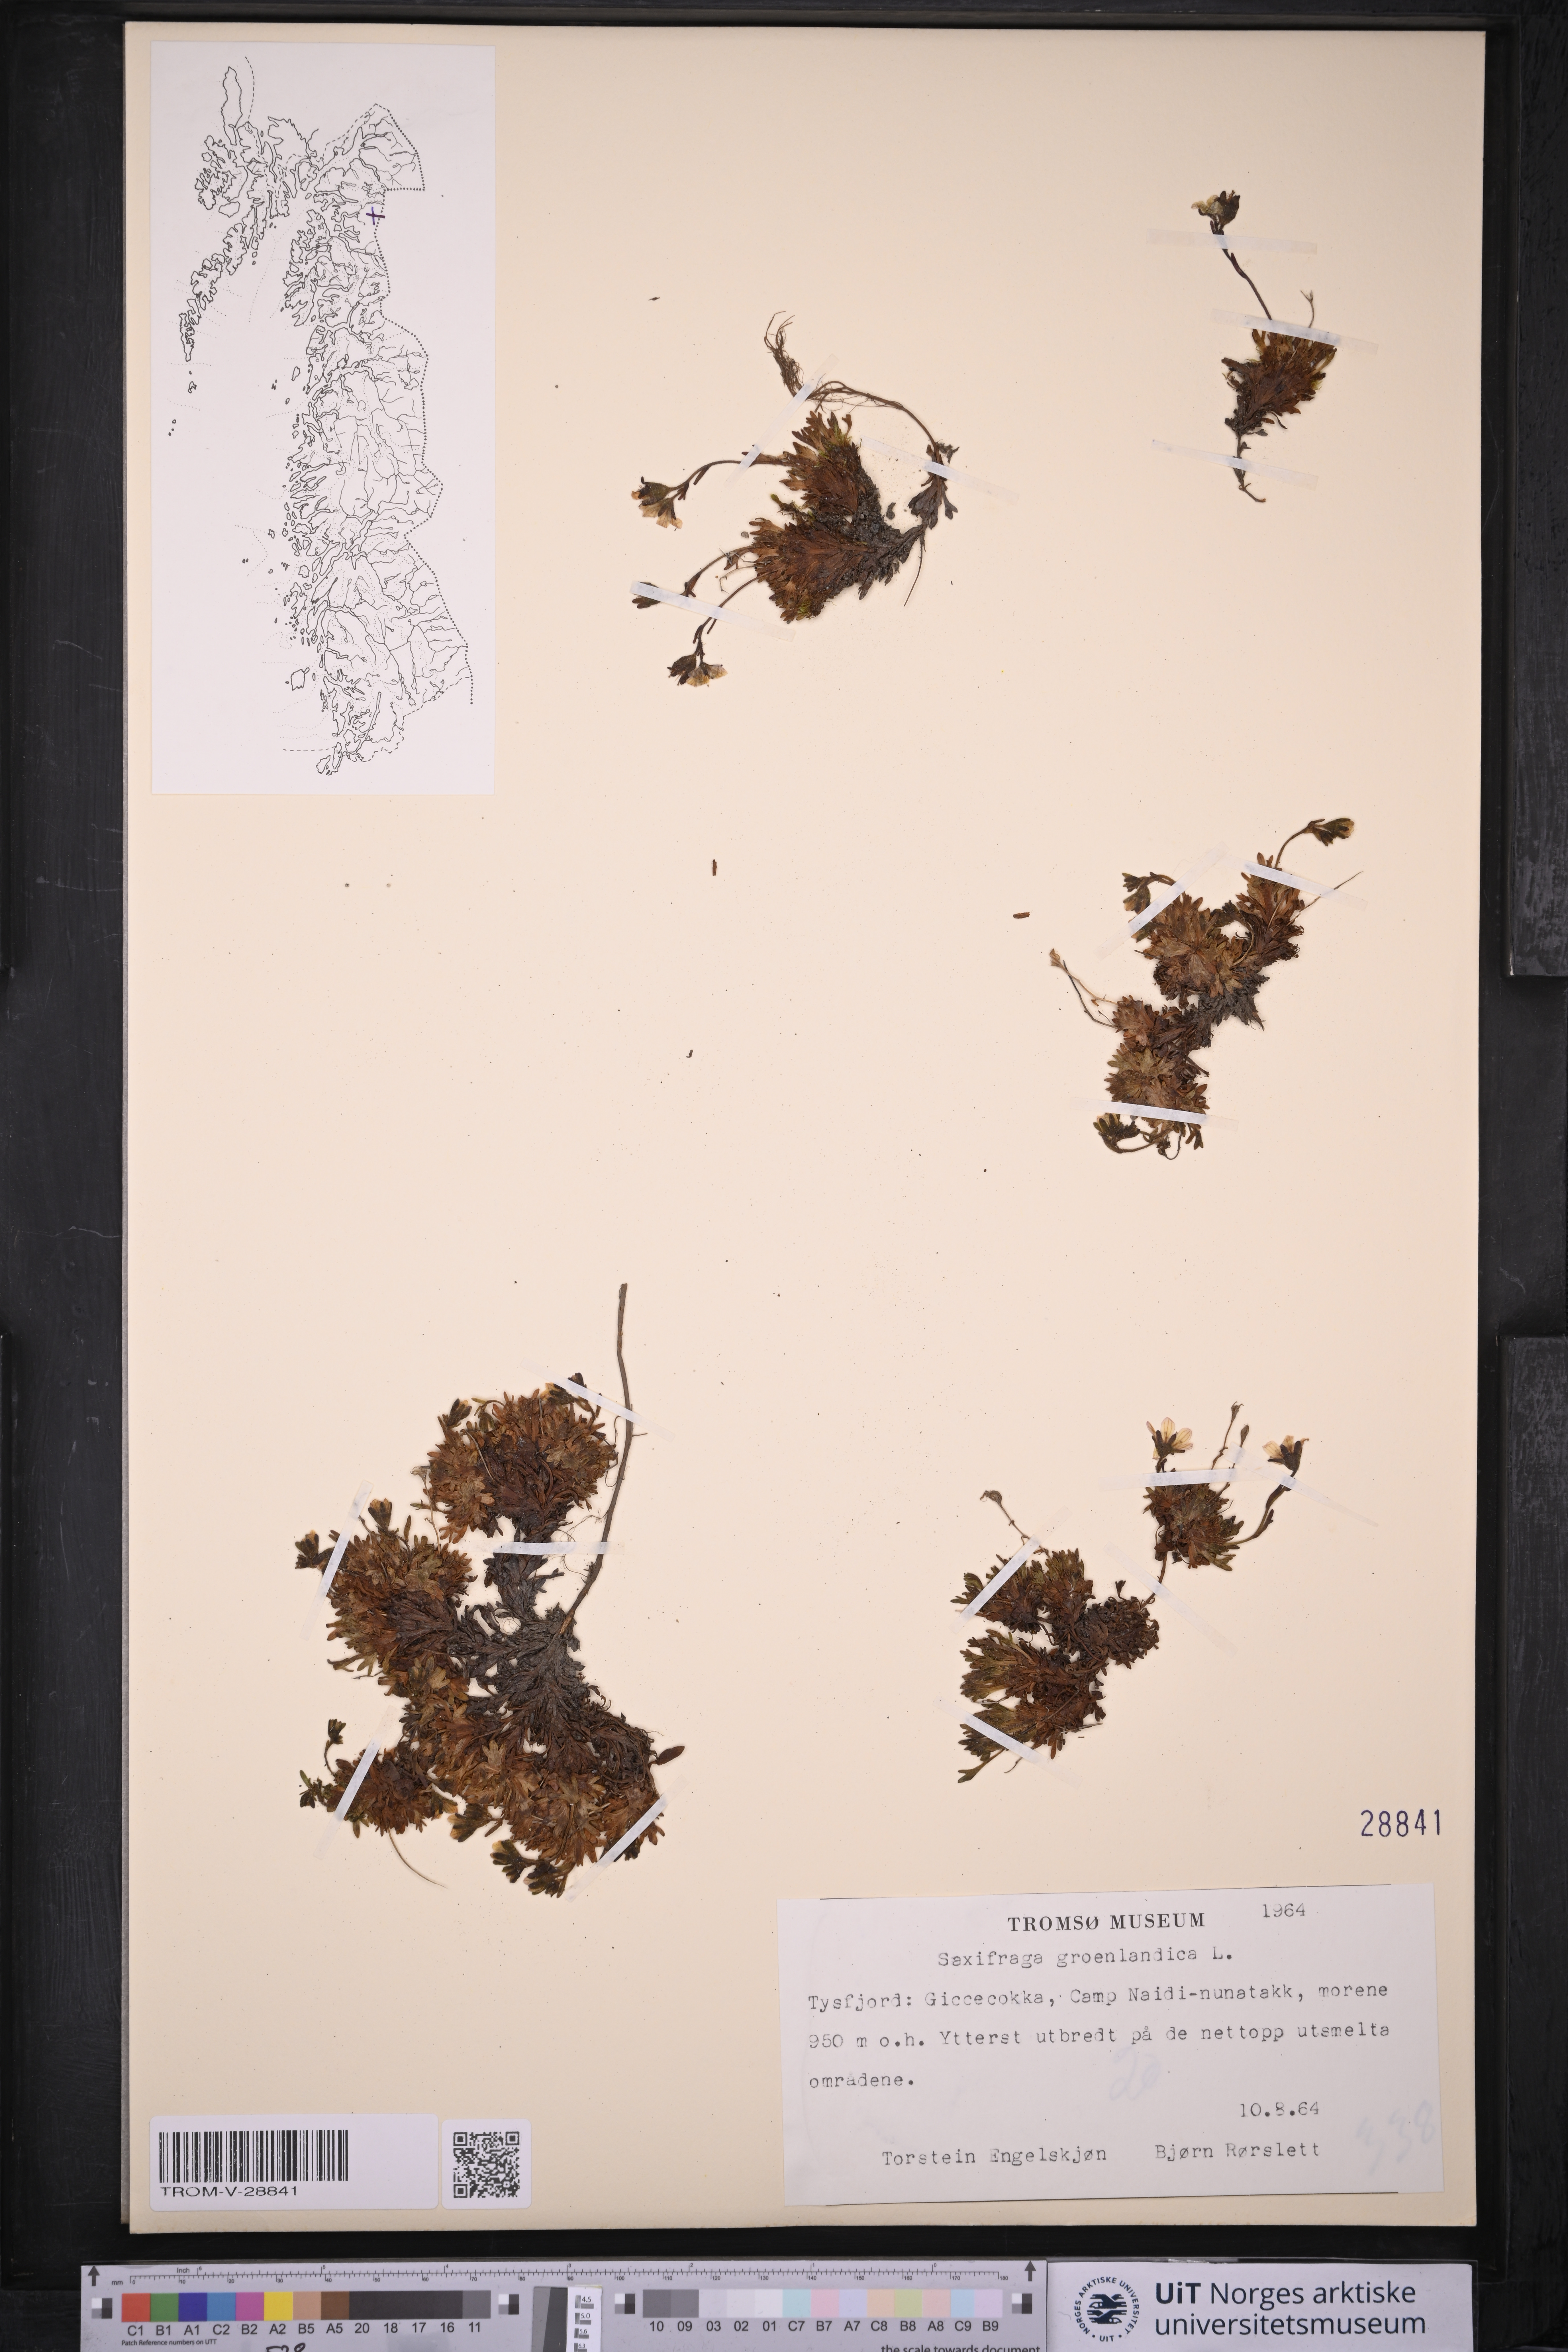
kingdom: Plantae
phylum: Tracheophyta
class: Magnoliopsida
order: Saxifragales
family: Saxifragaceae
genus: Saxifraga
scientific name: Saxifraga cespitosa
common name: Tufted saxifrage
